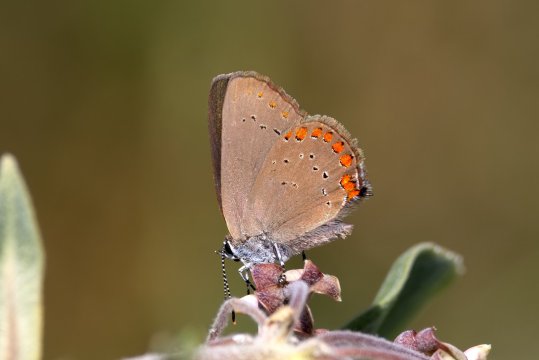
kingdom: Animalia
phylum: Arthropoda
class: Insecta
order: Lepidoptera
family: Lycaenidae
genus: Harkenclenus
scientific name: Harkenclenus titus
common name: Coral Hairstreak
